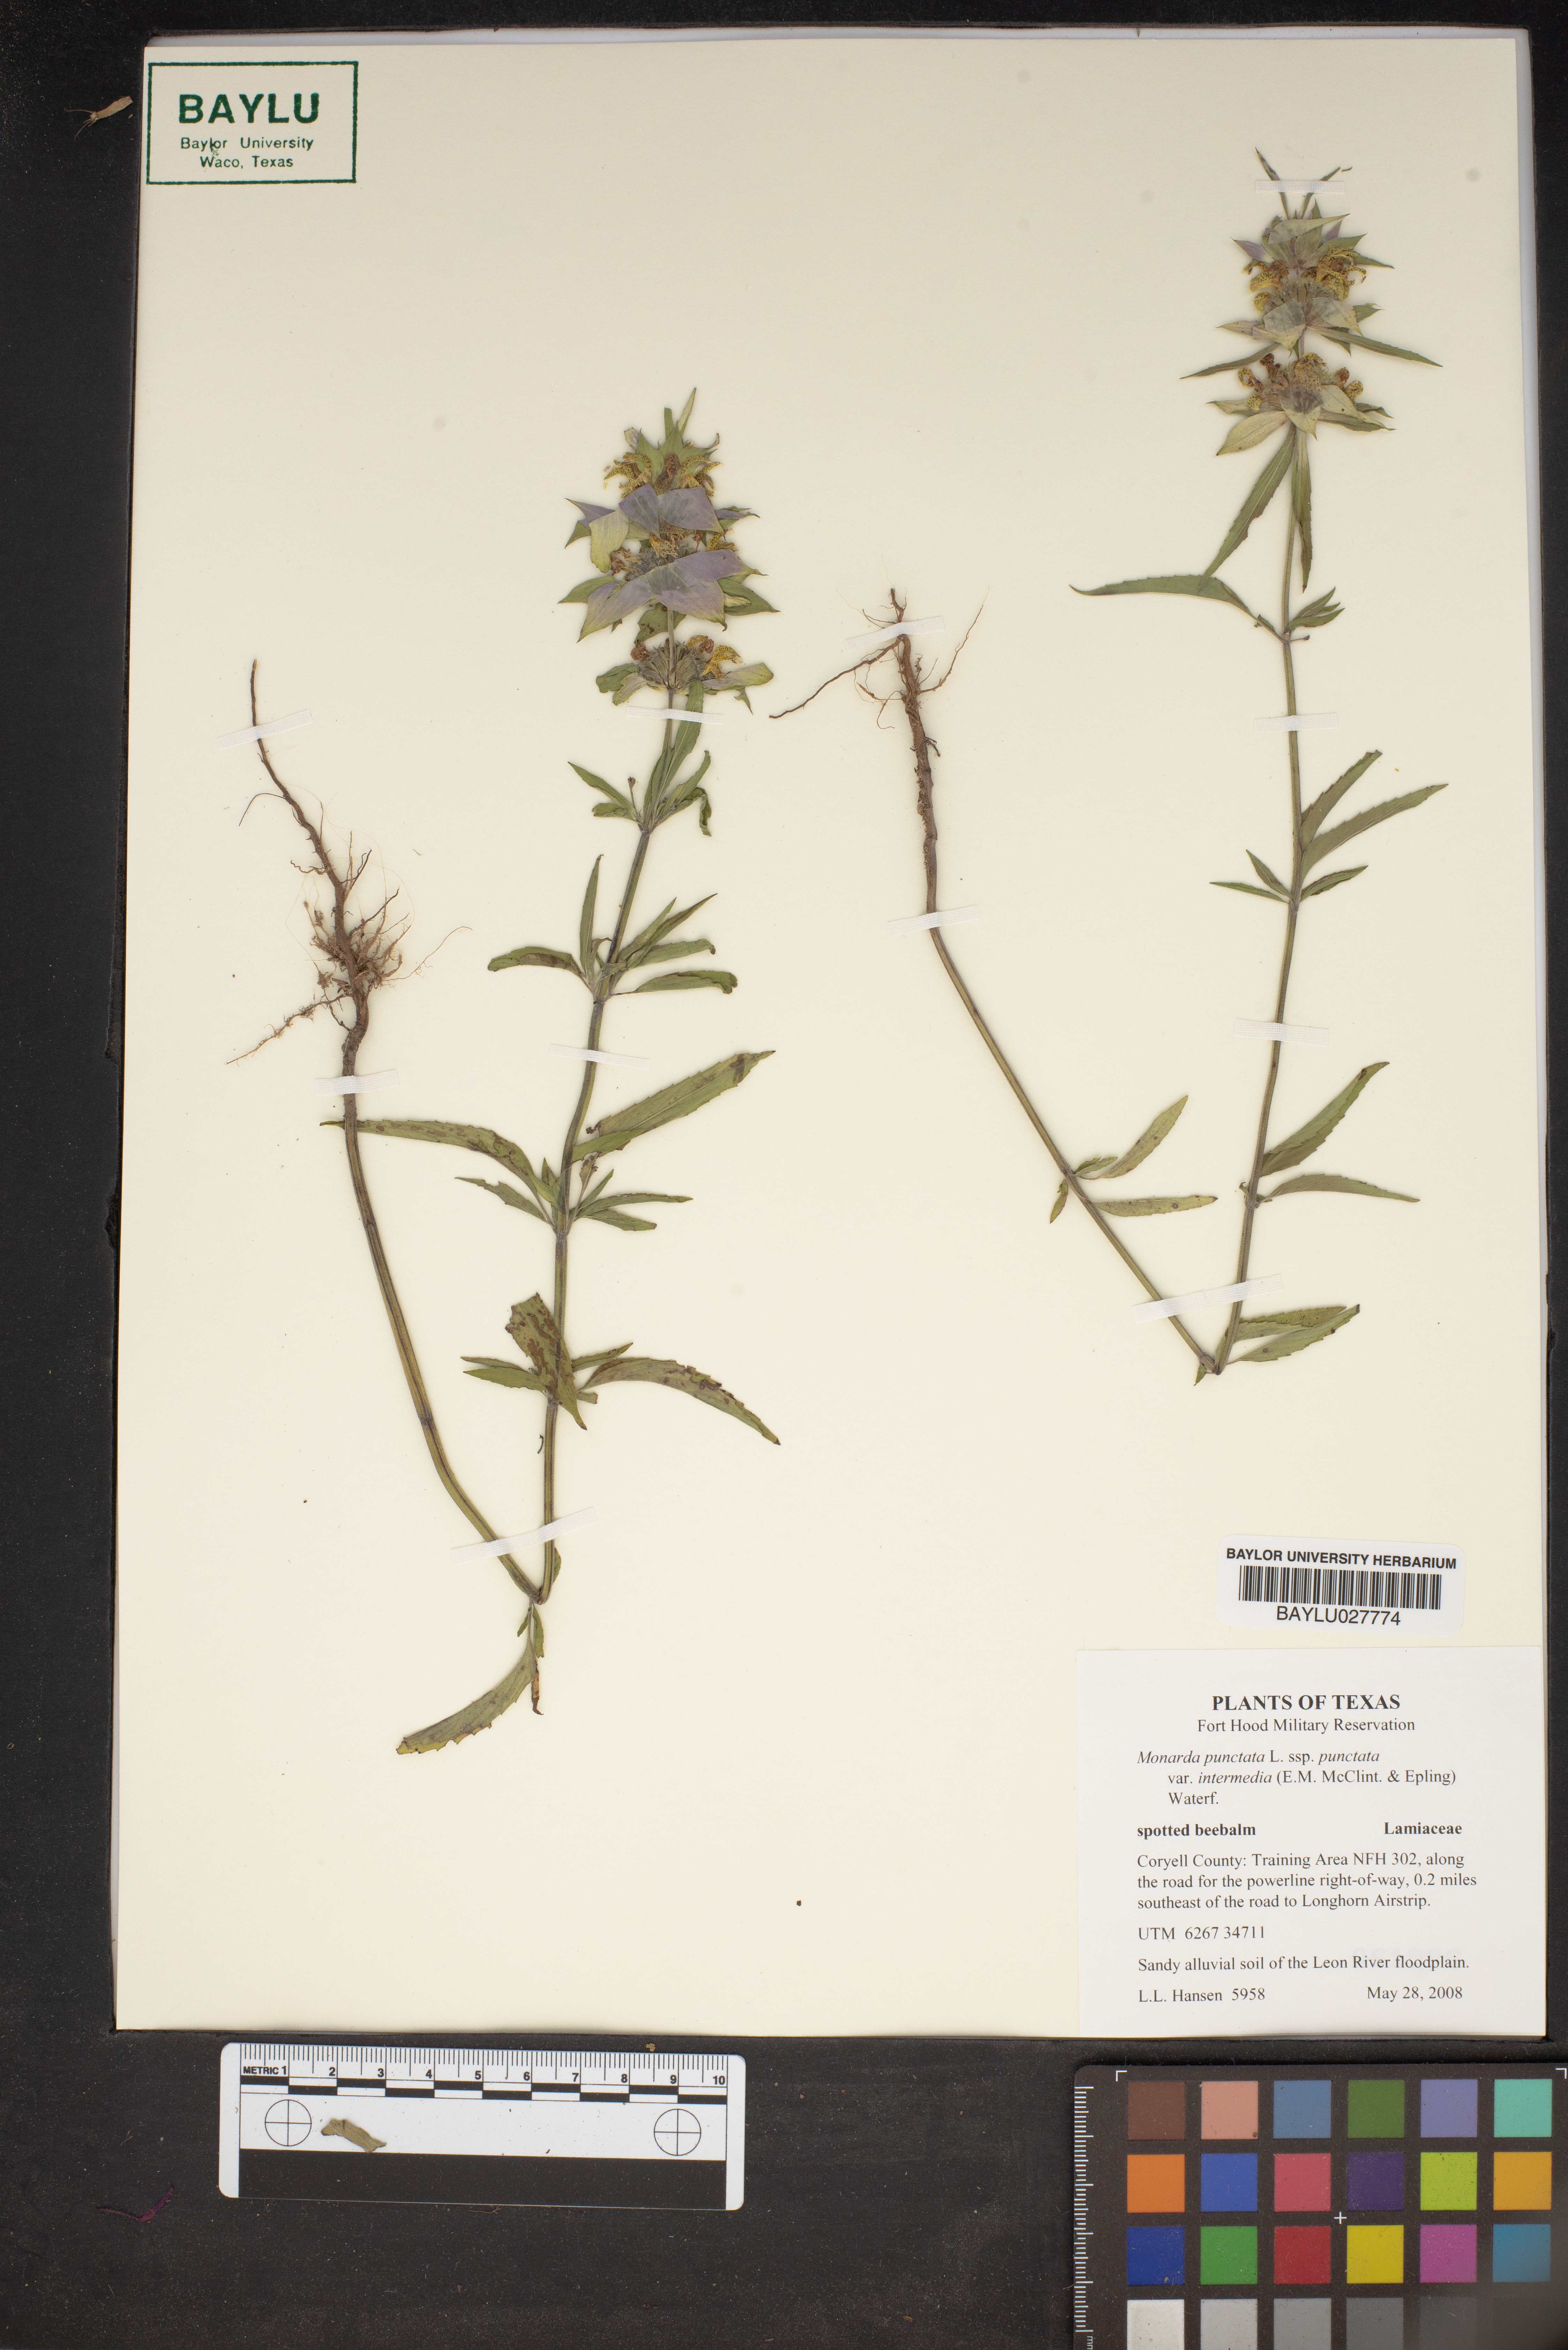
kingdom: Plantae
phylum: Tracheophyta
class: Magnoliopsida
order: Lamiales
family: Lamiaceae
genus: Monarda
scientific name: Monarda punctata
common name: Dotted monarda
